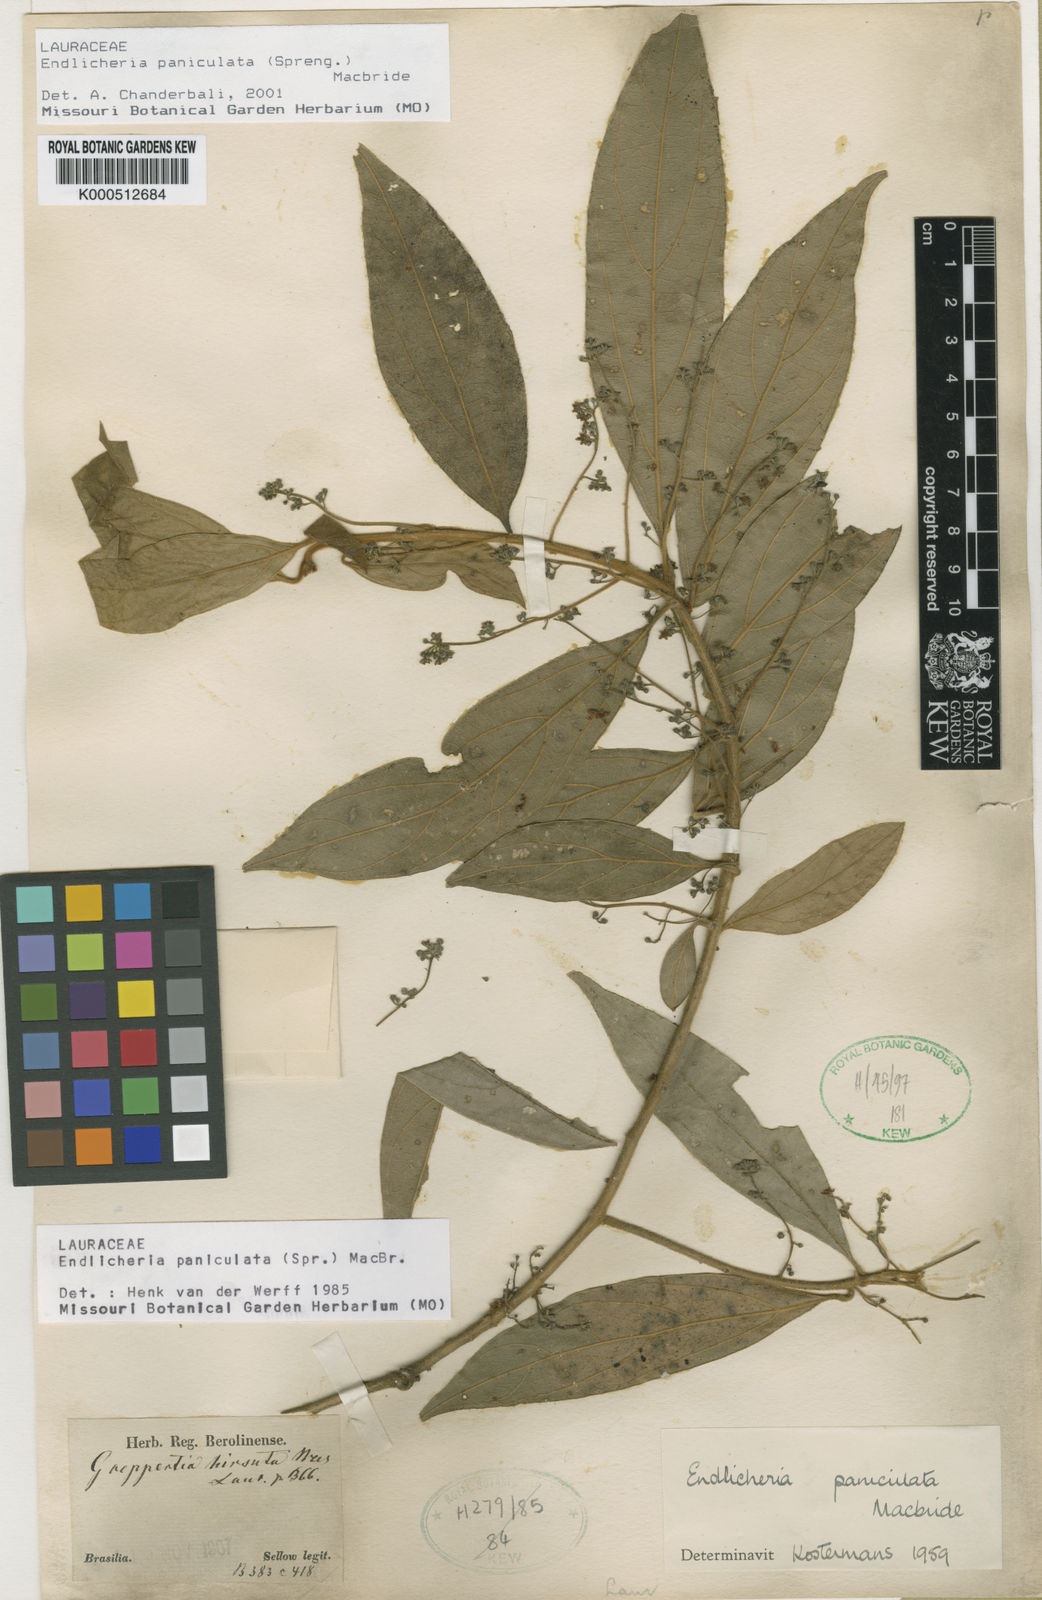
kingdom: Plantae
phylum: Tracheophyta
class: Magnoliopsida
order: Laurales
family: Lauraceae
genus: Endlicheria
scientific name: Endlicheria paniculata
